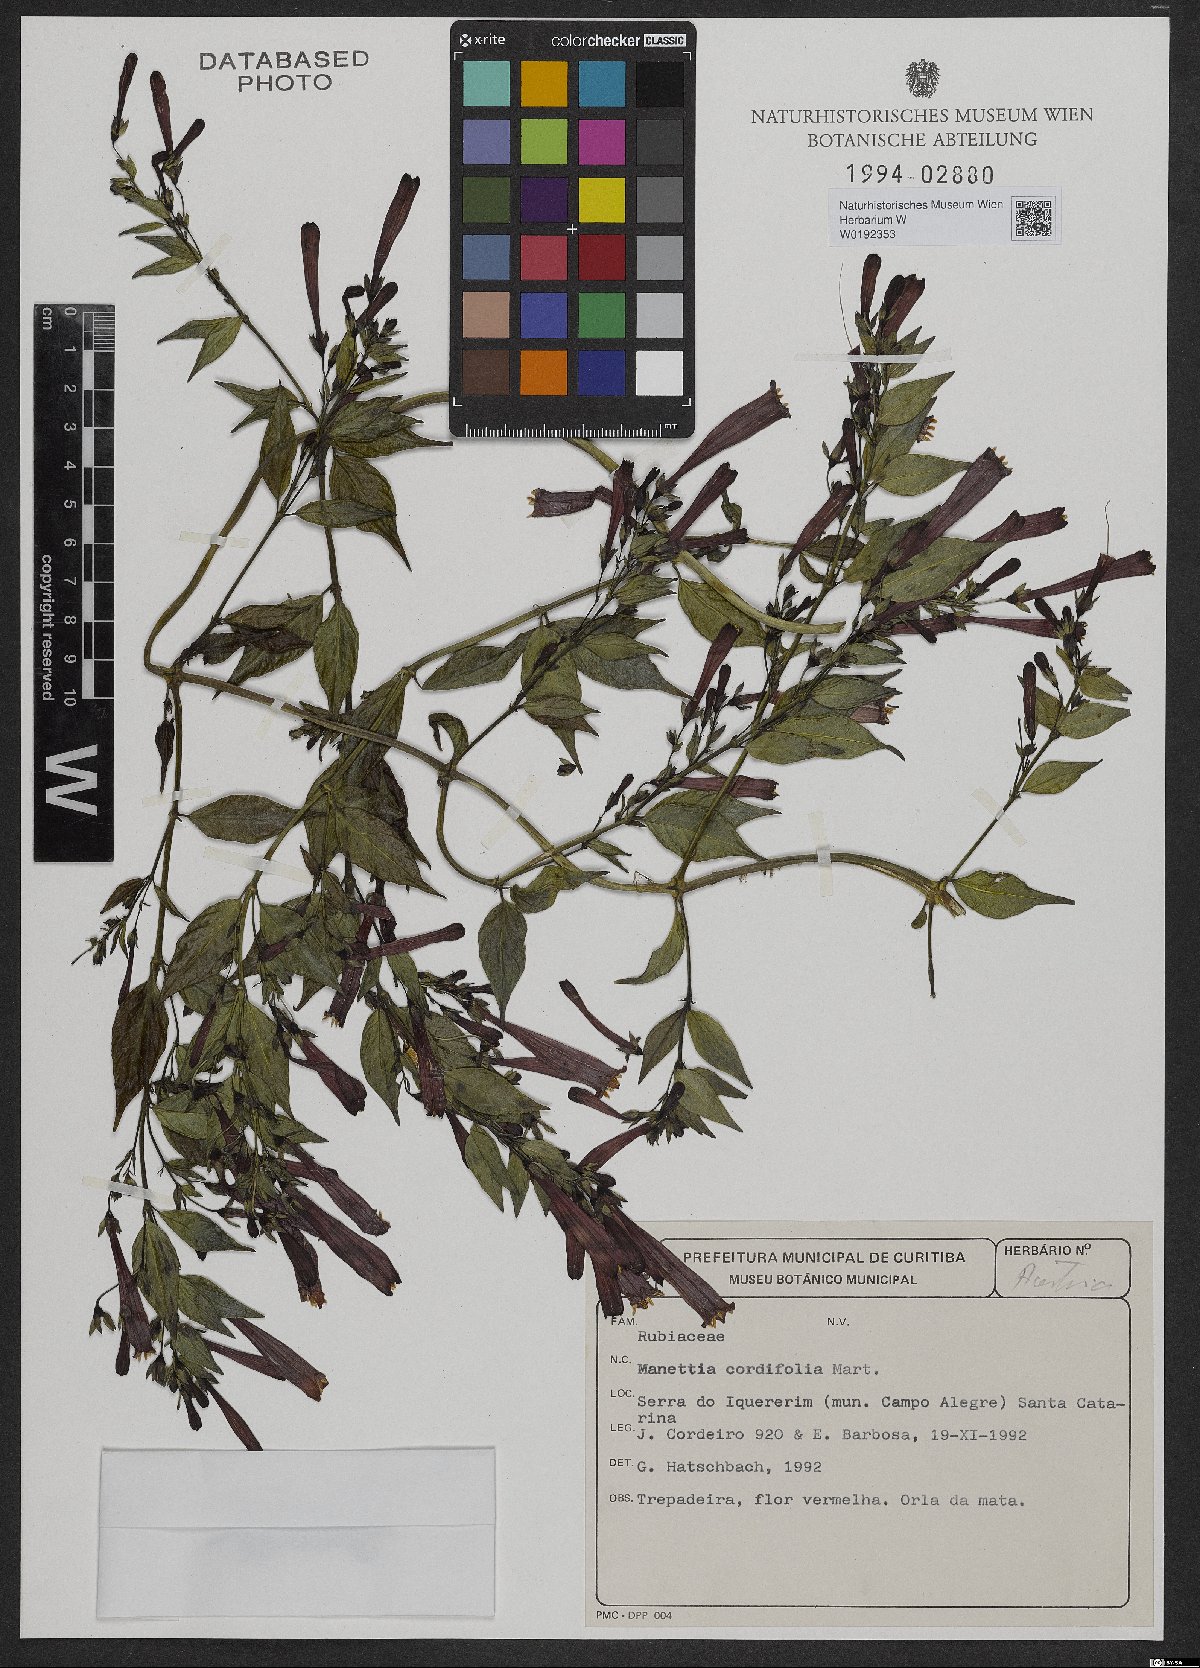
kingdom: Plantae
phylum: Tracheophyta
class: Magnoliopsida
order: Gentianales
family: Rubiaceae
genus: Manettia
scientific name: Manettia cordifolia
